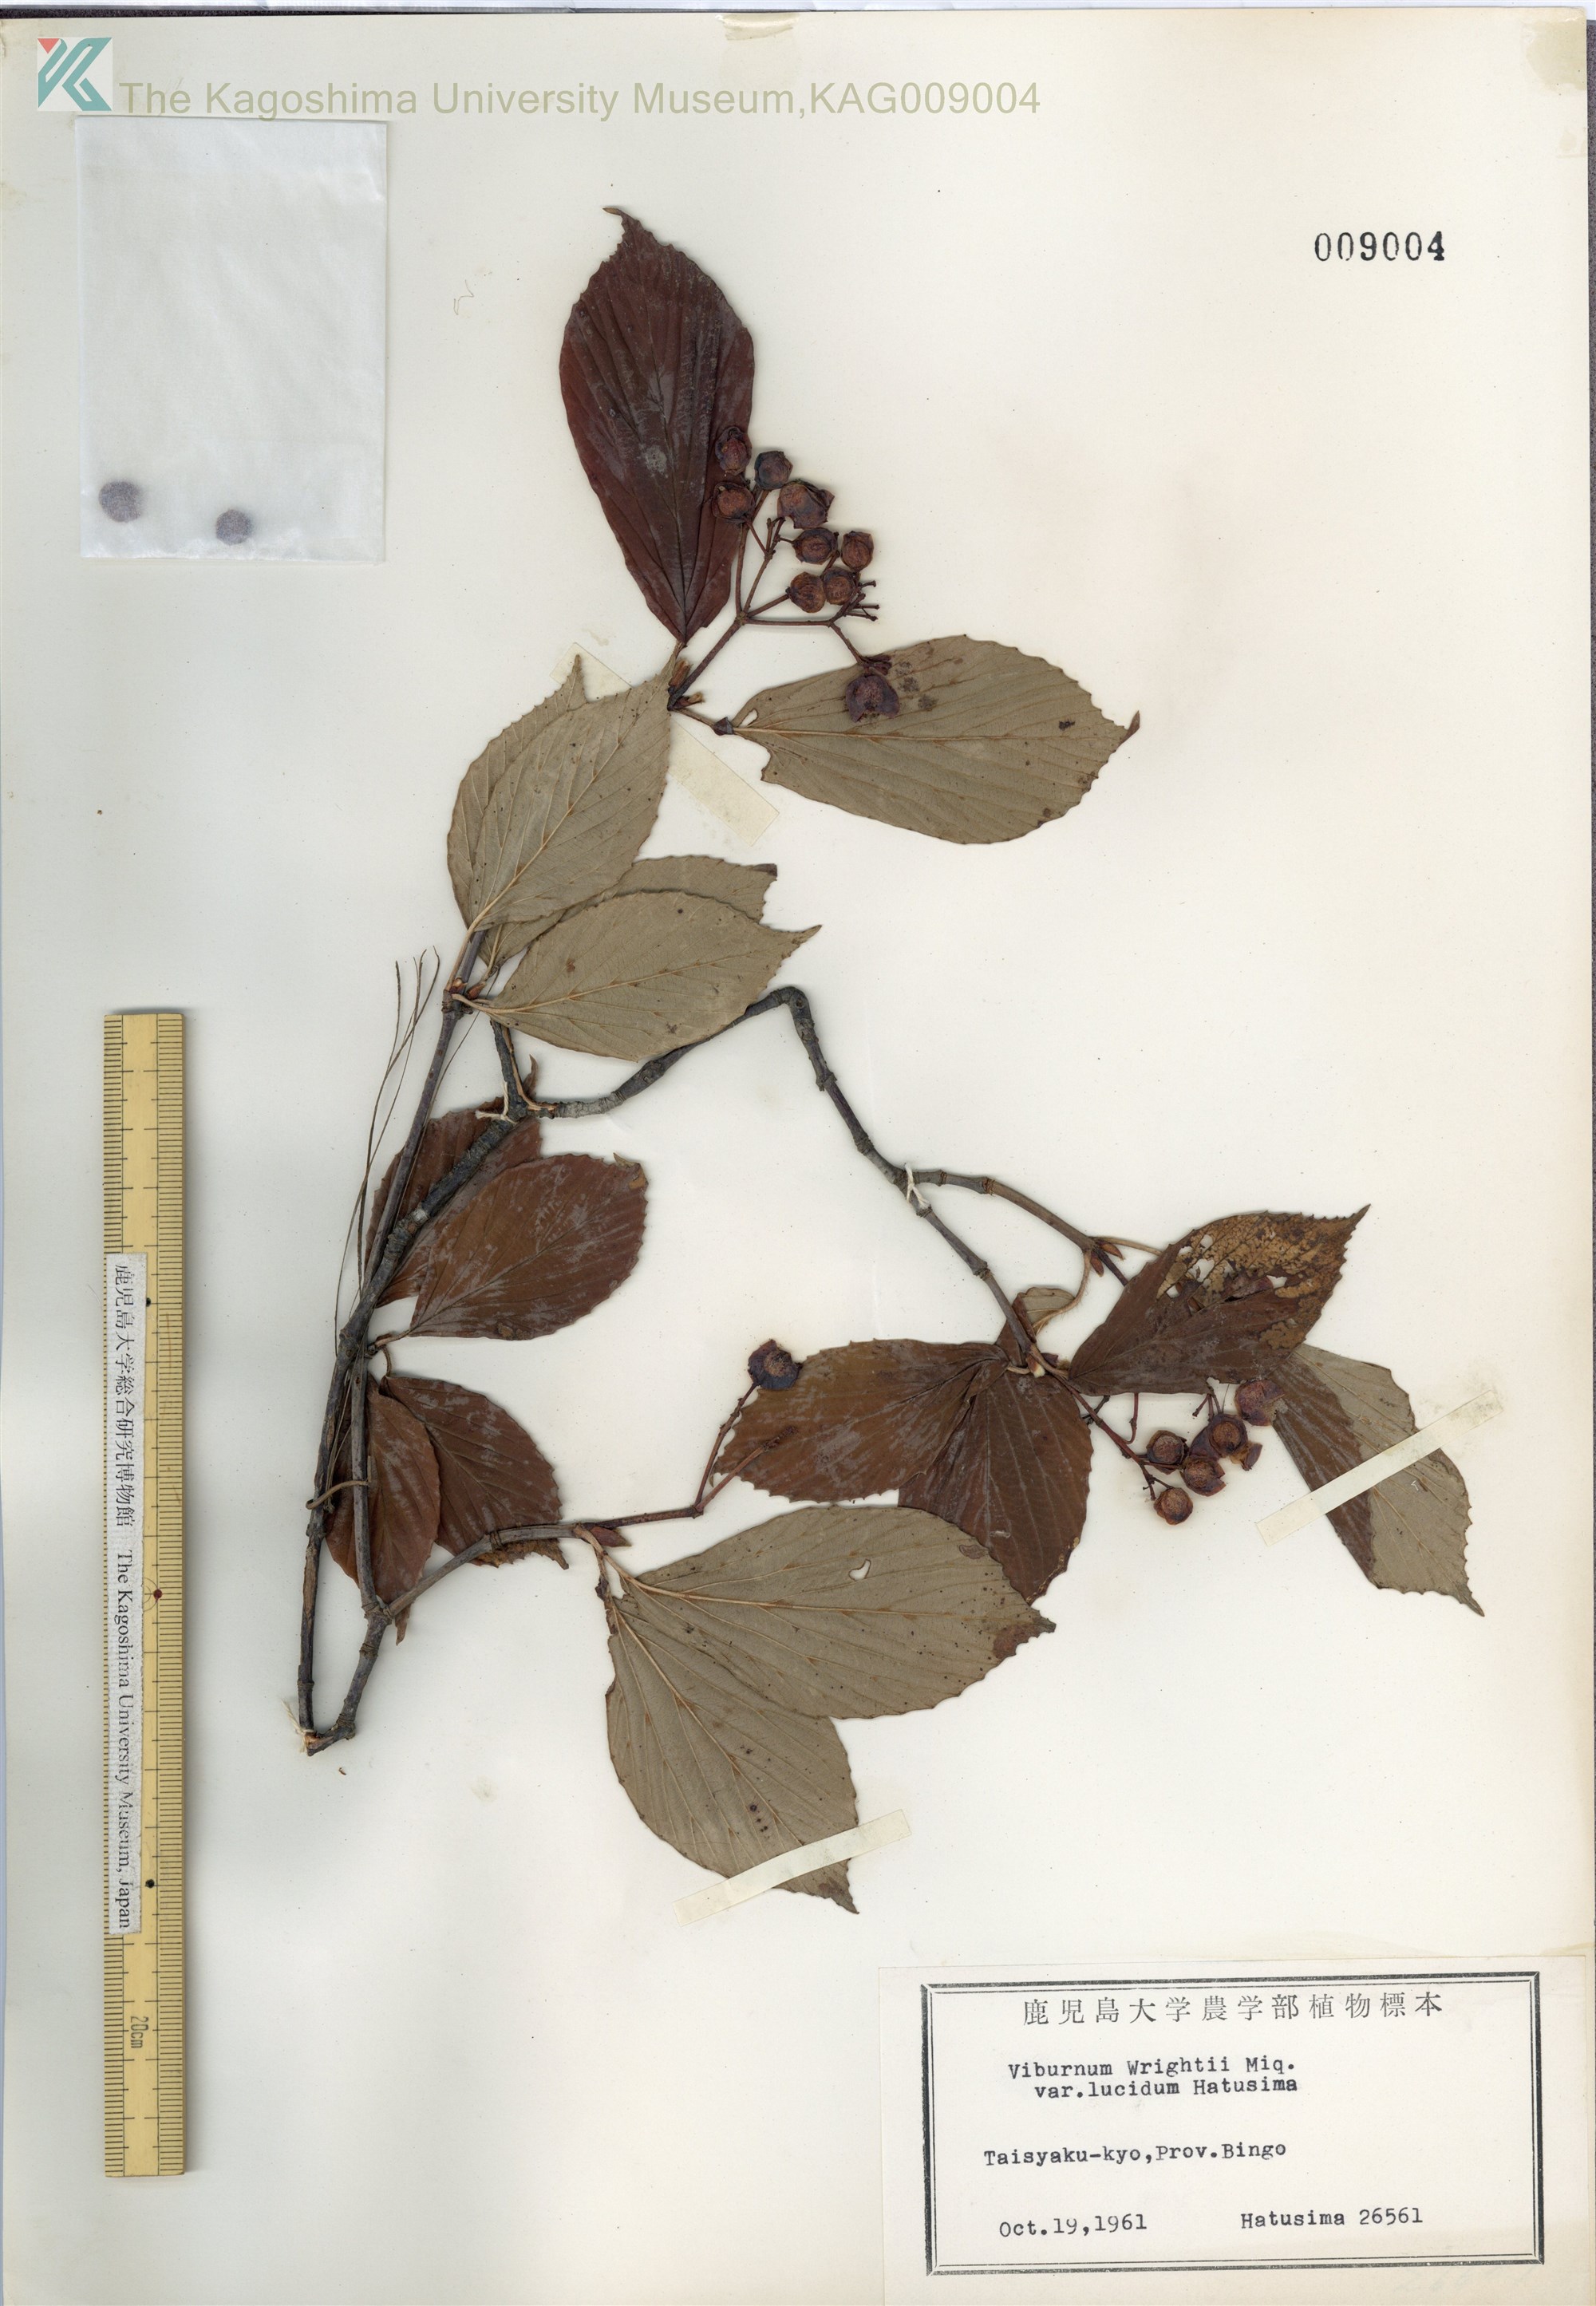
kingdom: Plantae
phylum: Tracheophyta
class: Magnoliopsida
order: Dipsacales
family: Viburnaceae
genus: Viburnum
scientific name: Viburnum wrightii
